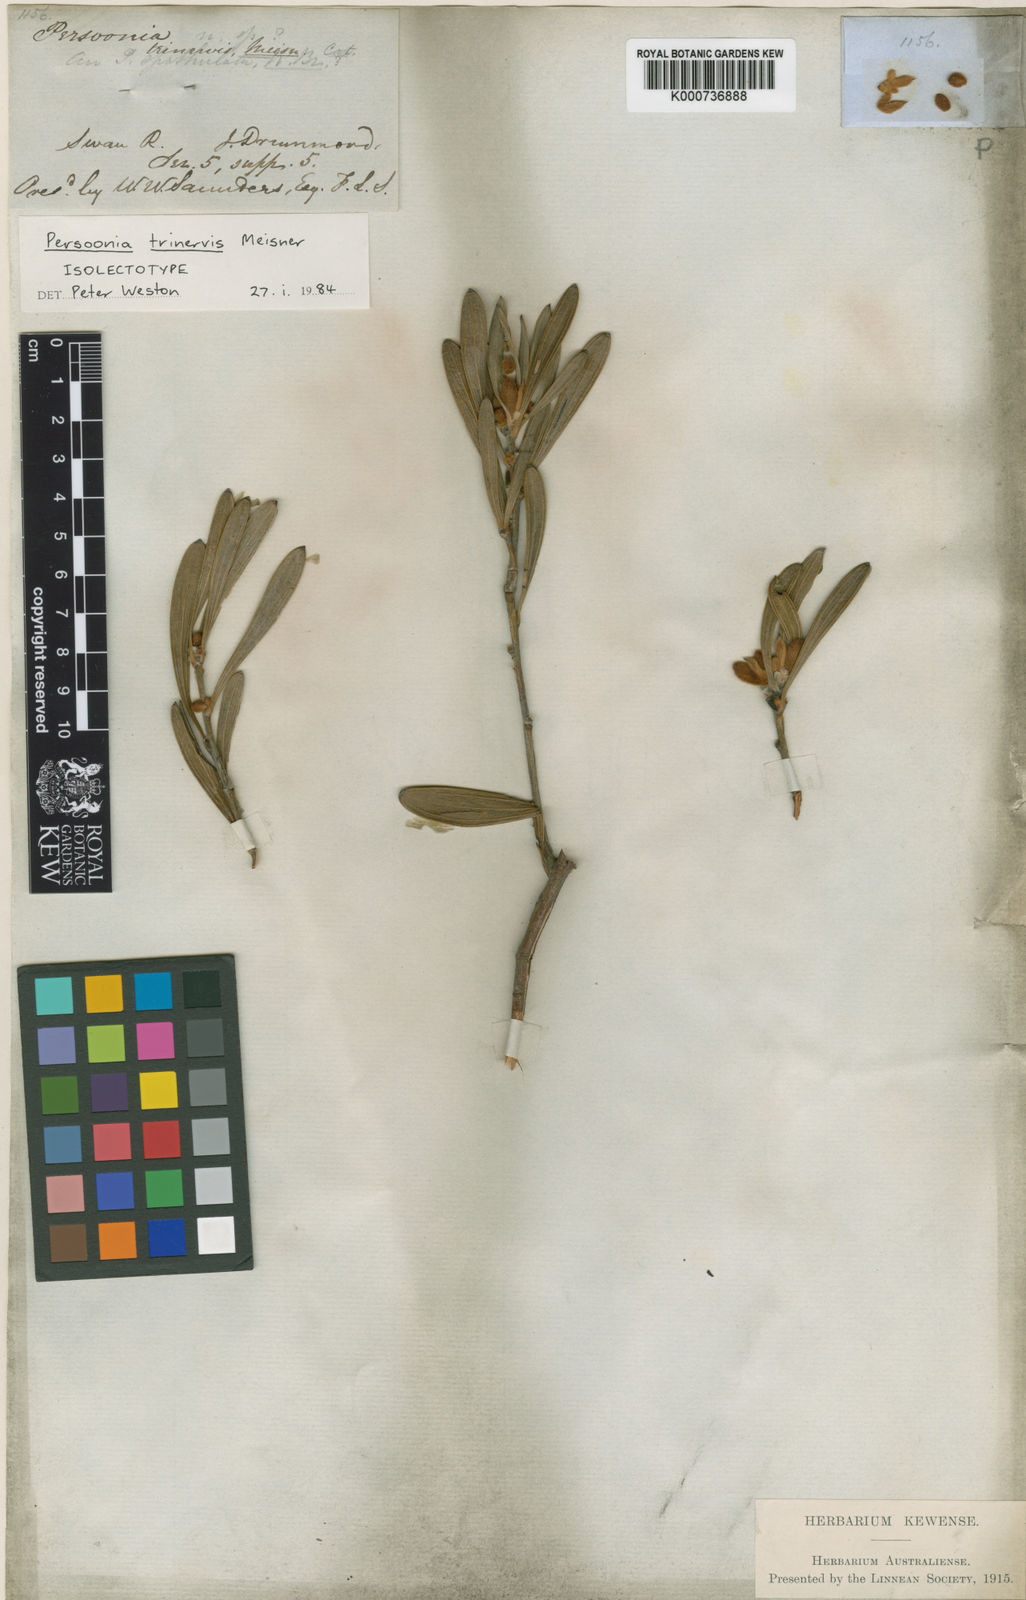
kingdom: Plantae
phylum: Tracheophyta
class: Magnoliopsida
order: Proteales
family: Proteaceae
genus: Persoonia
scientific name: Persoonia trinervis
